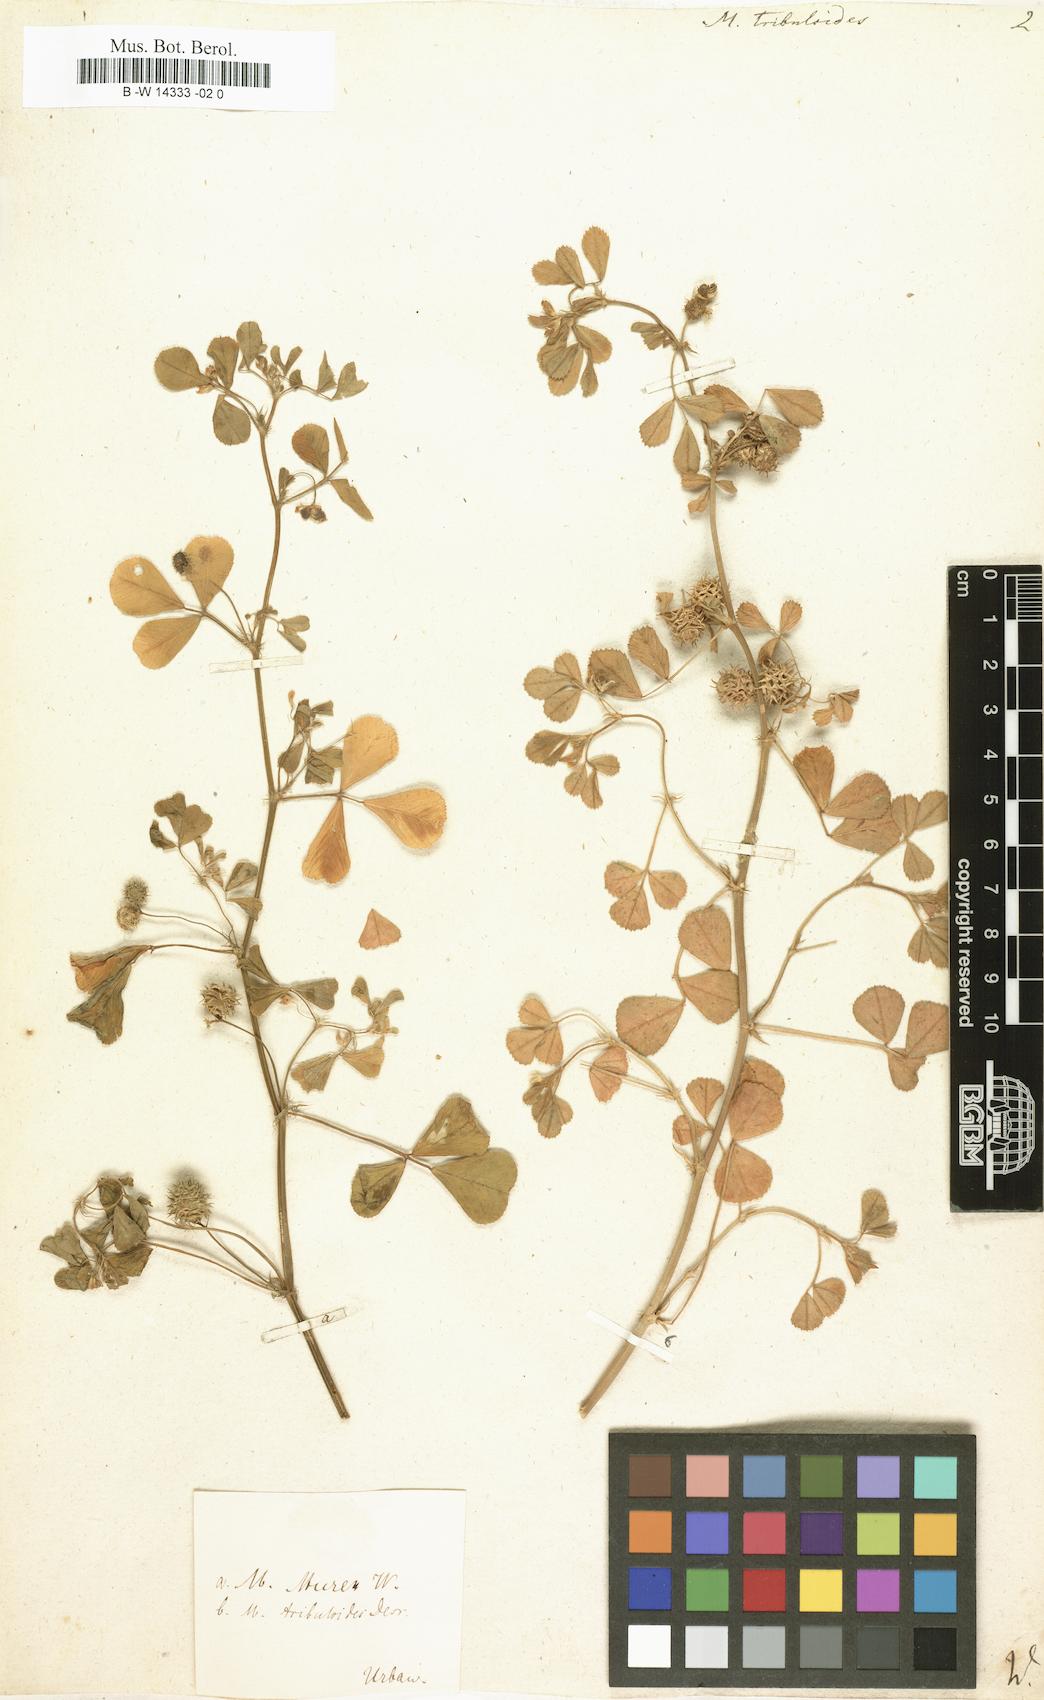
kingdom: Plantae
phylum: Tracheophyta
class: Magnoliopsida
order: Fabales
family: Fabaceae
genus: Medicago
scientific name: Medicago truncatula
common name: Strong-spined medick
